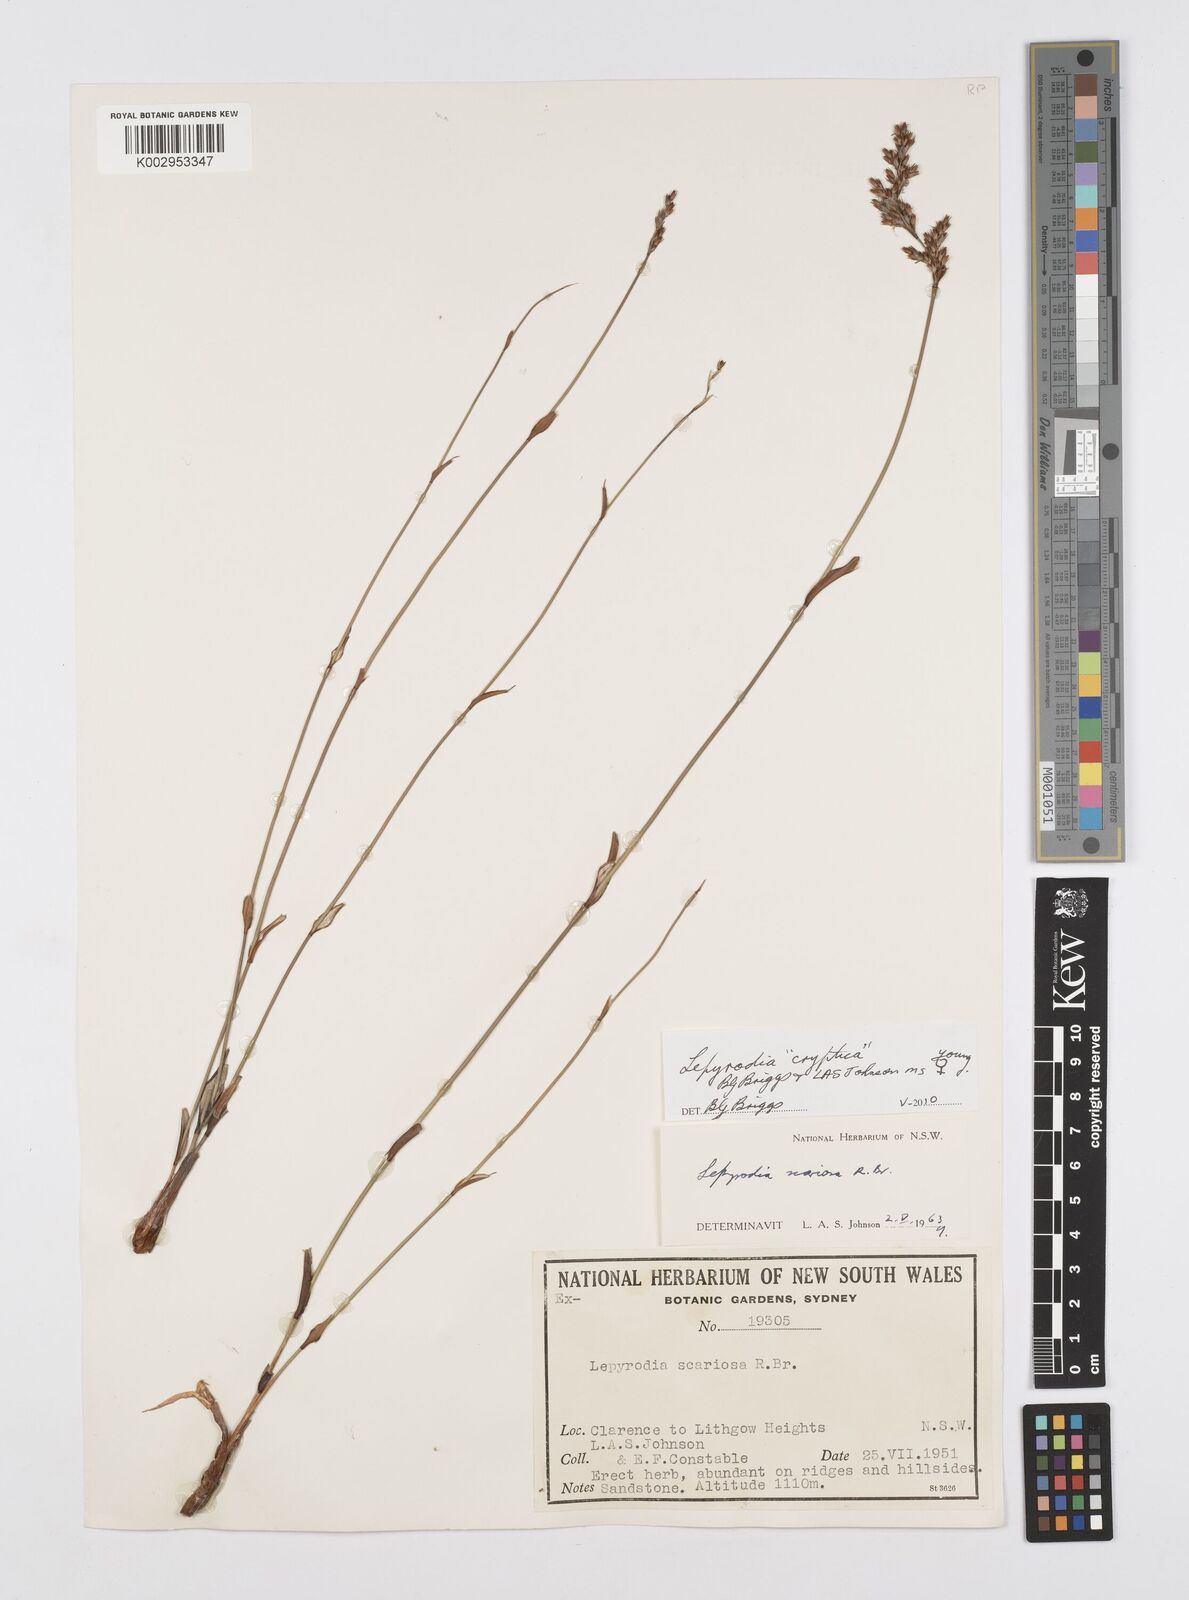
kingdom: Plantae
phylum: Tracheophyta
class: Liliopsida
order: Poales
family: Restionaceae
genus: Lepyrodia
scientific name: Lepyrodia cryptica
